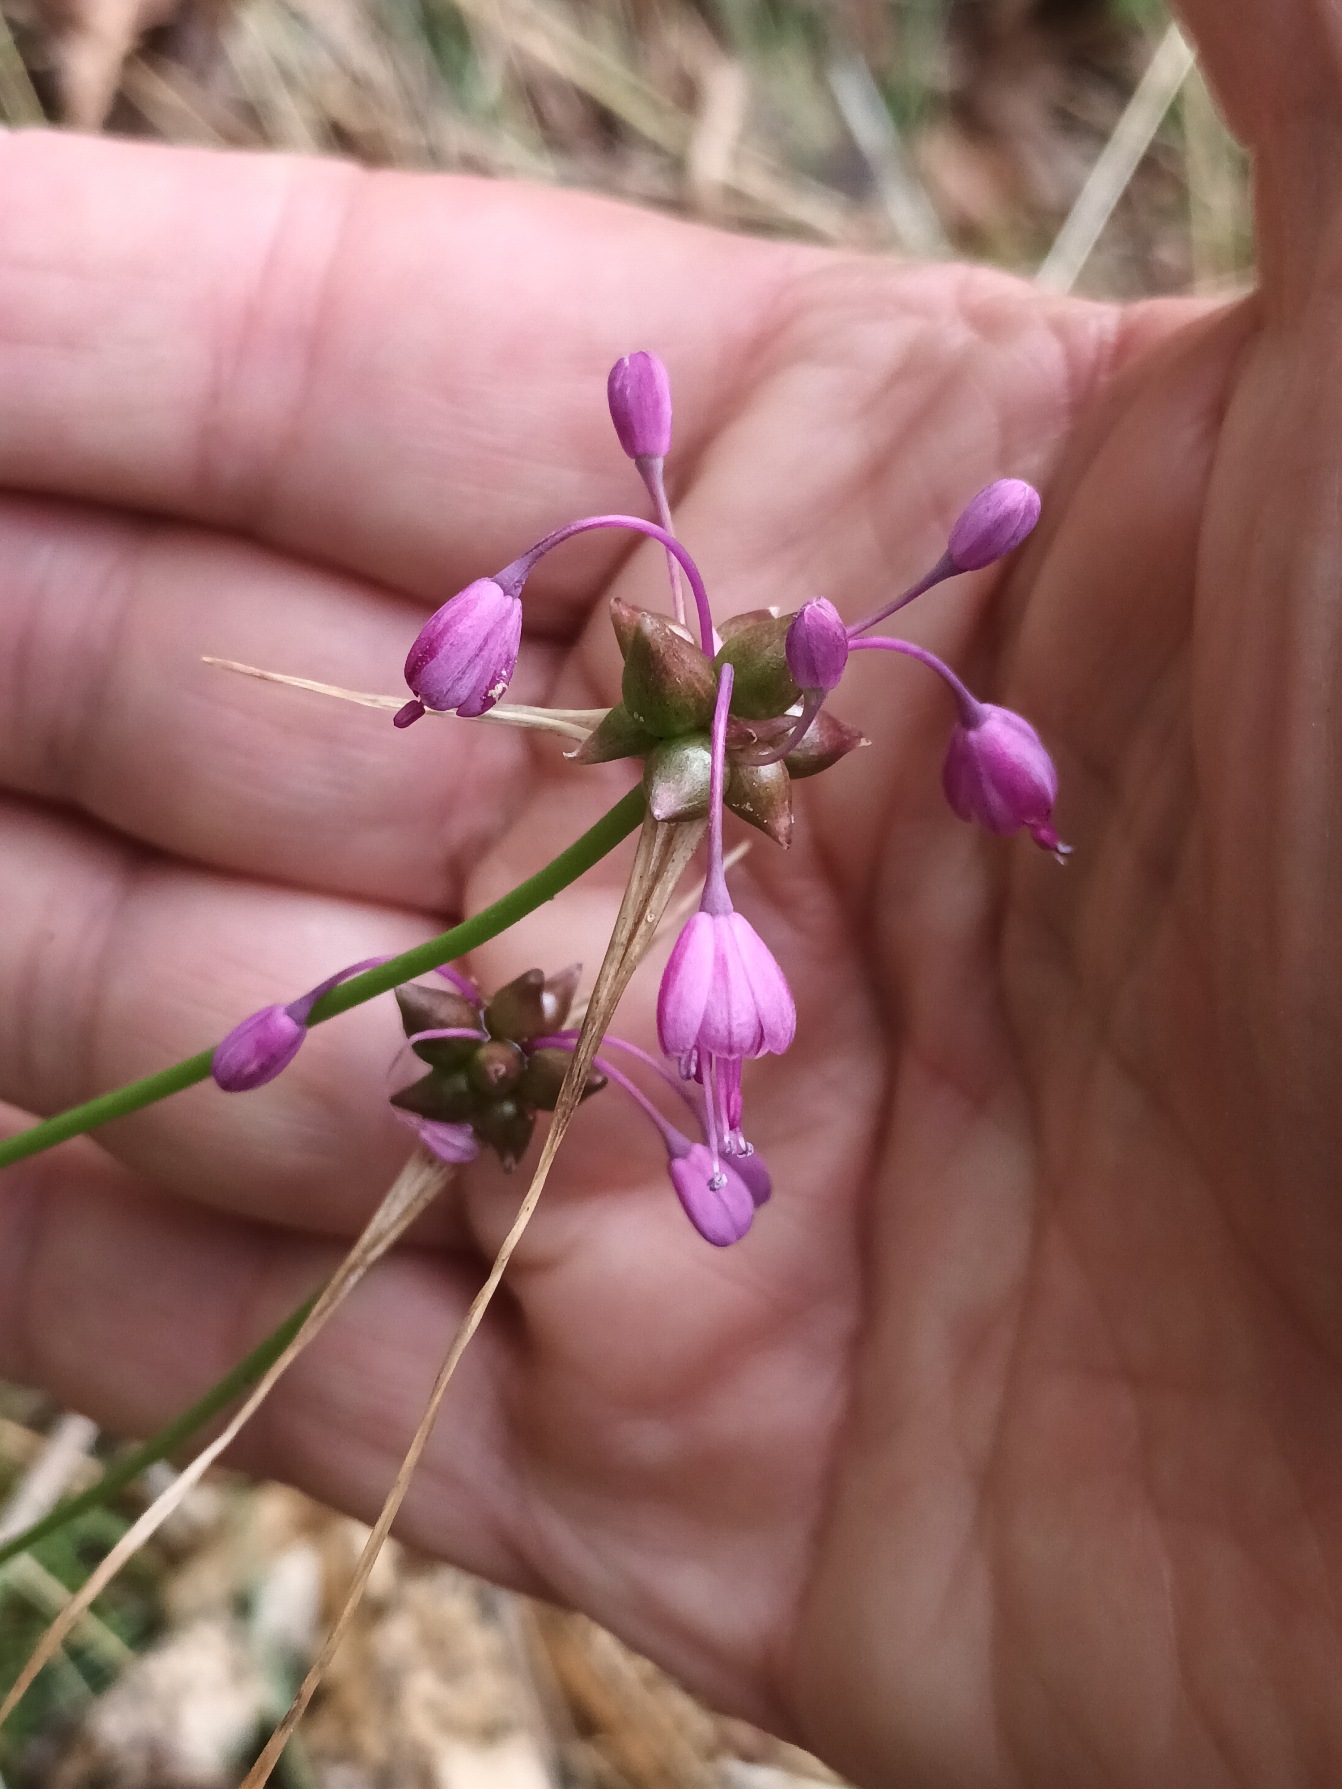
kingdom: Plantae
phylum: Tracheophyta
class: Liliopsida
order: Asparagales
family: Amaryllidaceae
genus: Allium
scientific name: Allium carinatum
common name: Kølet løg
